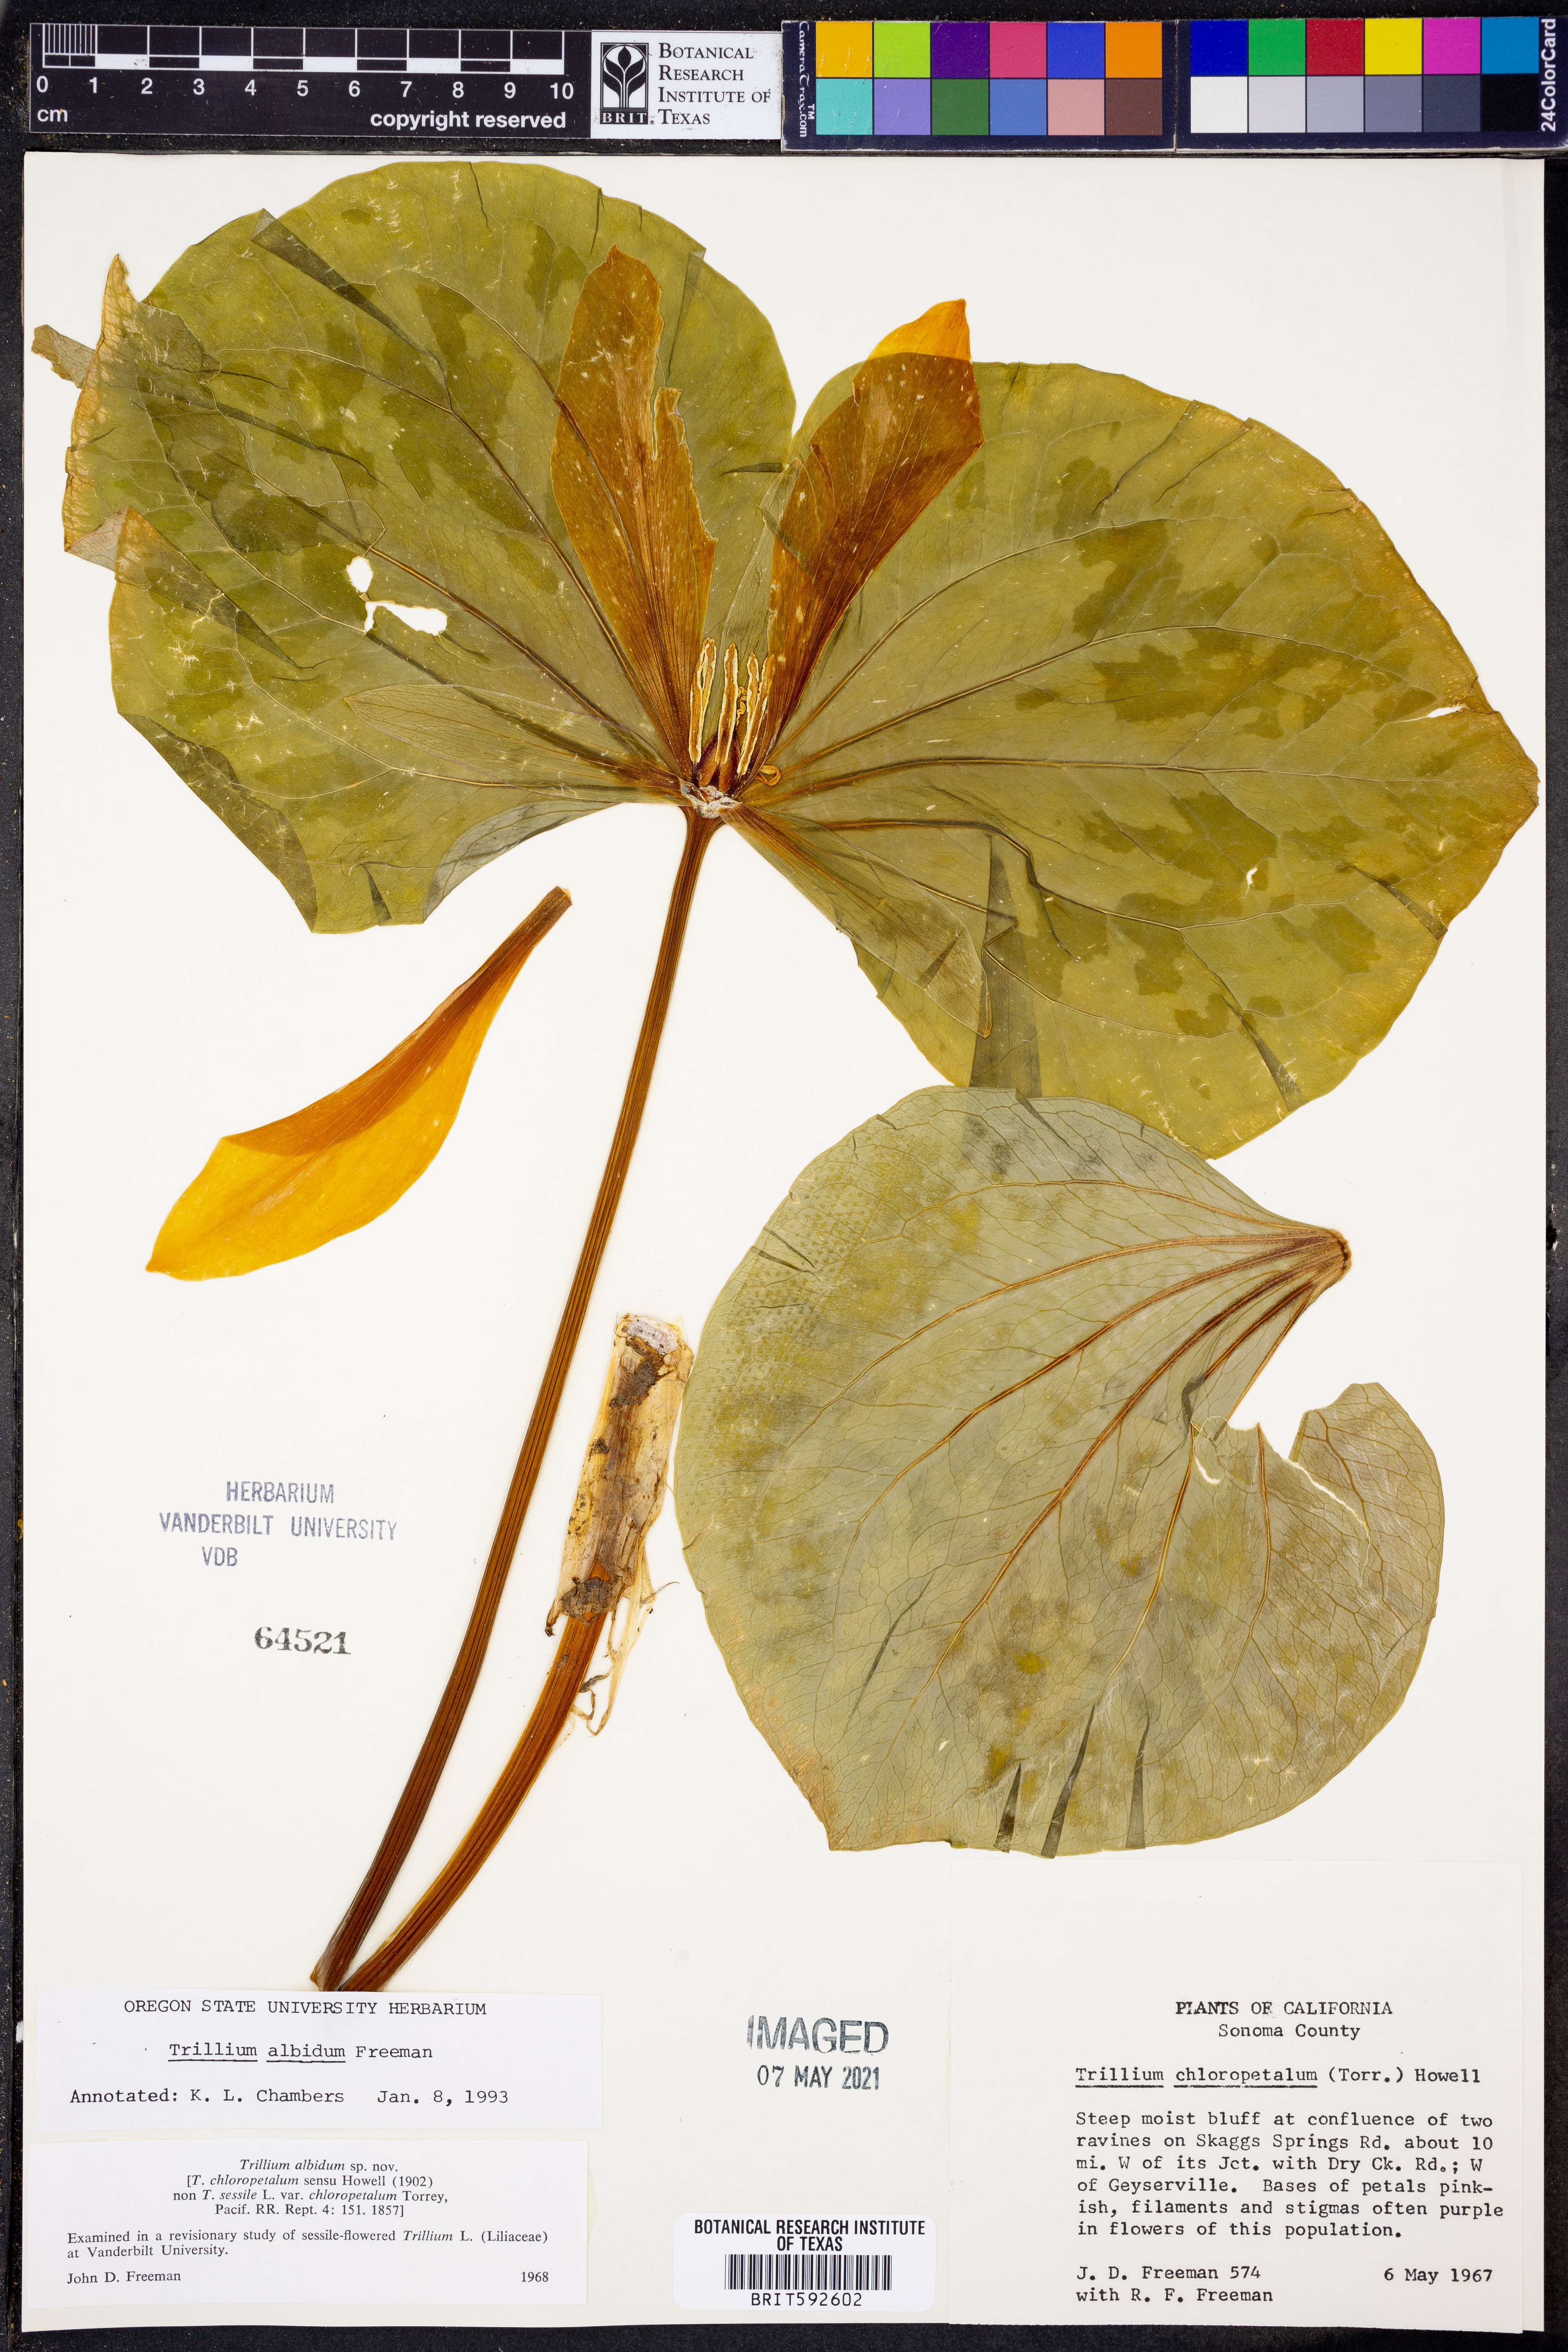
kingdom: Plantae
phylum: Tracheophyta
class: Liliopsida
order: Liliales
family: Melanthiaceae
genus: Trillium
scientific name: Trillium albidum
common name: Freeman's trillium
